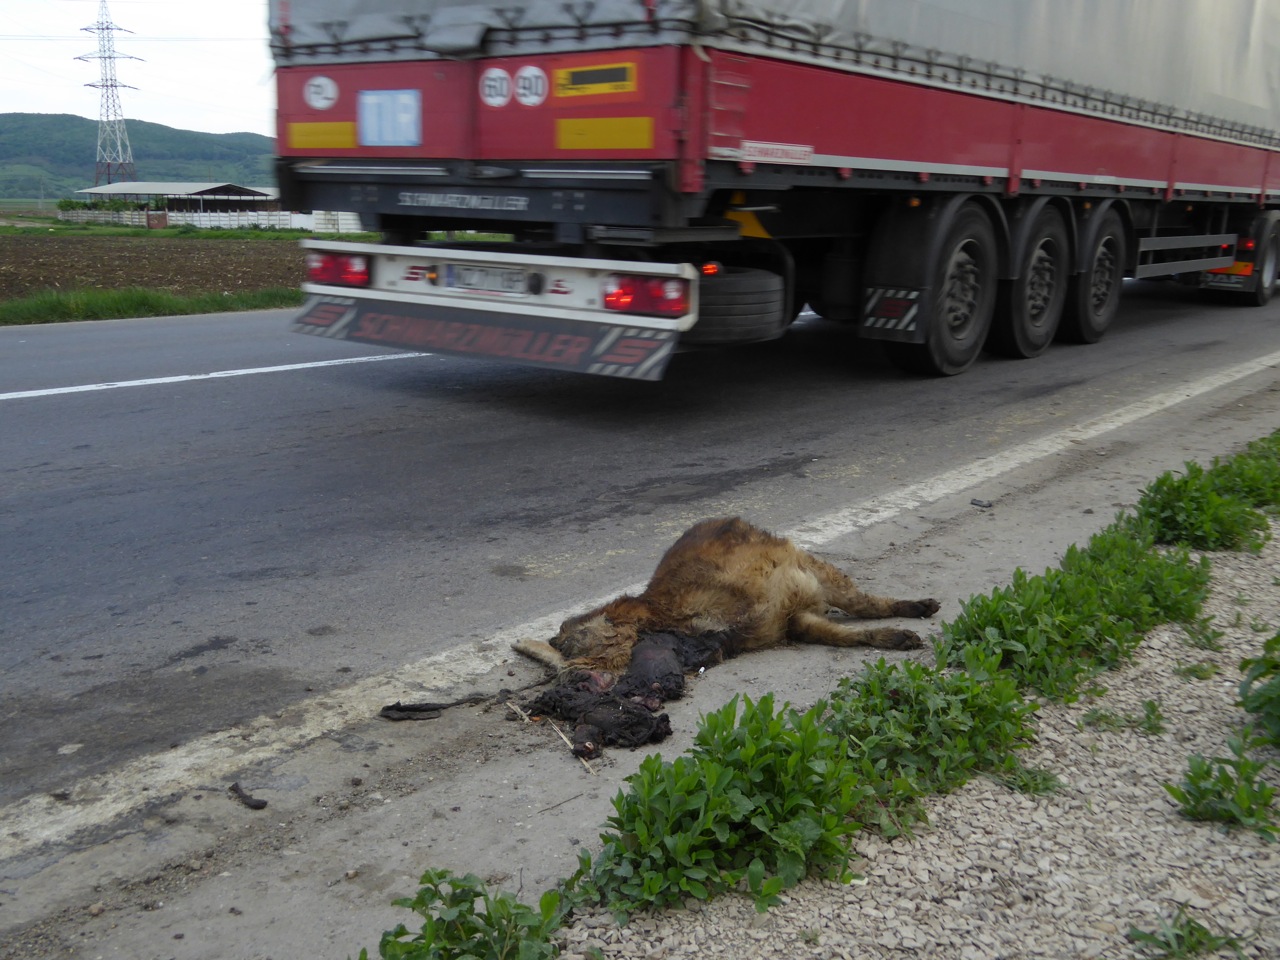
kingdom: Animalia
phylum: Chordata
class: Mammalia
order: Carnivora
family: Canidae
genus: Canis
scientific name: Canis lupus
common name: Gray wolf
